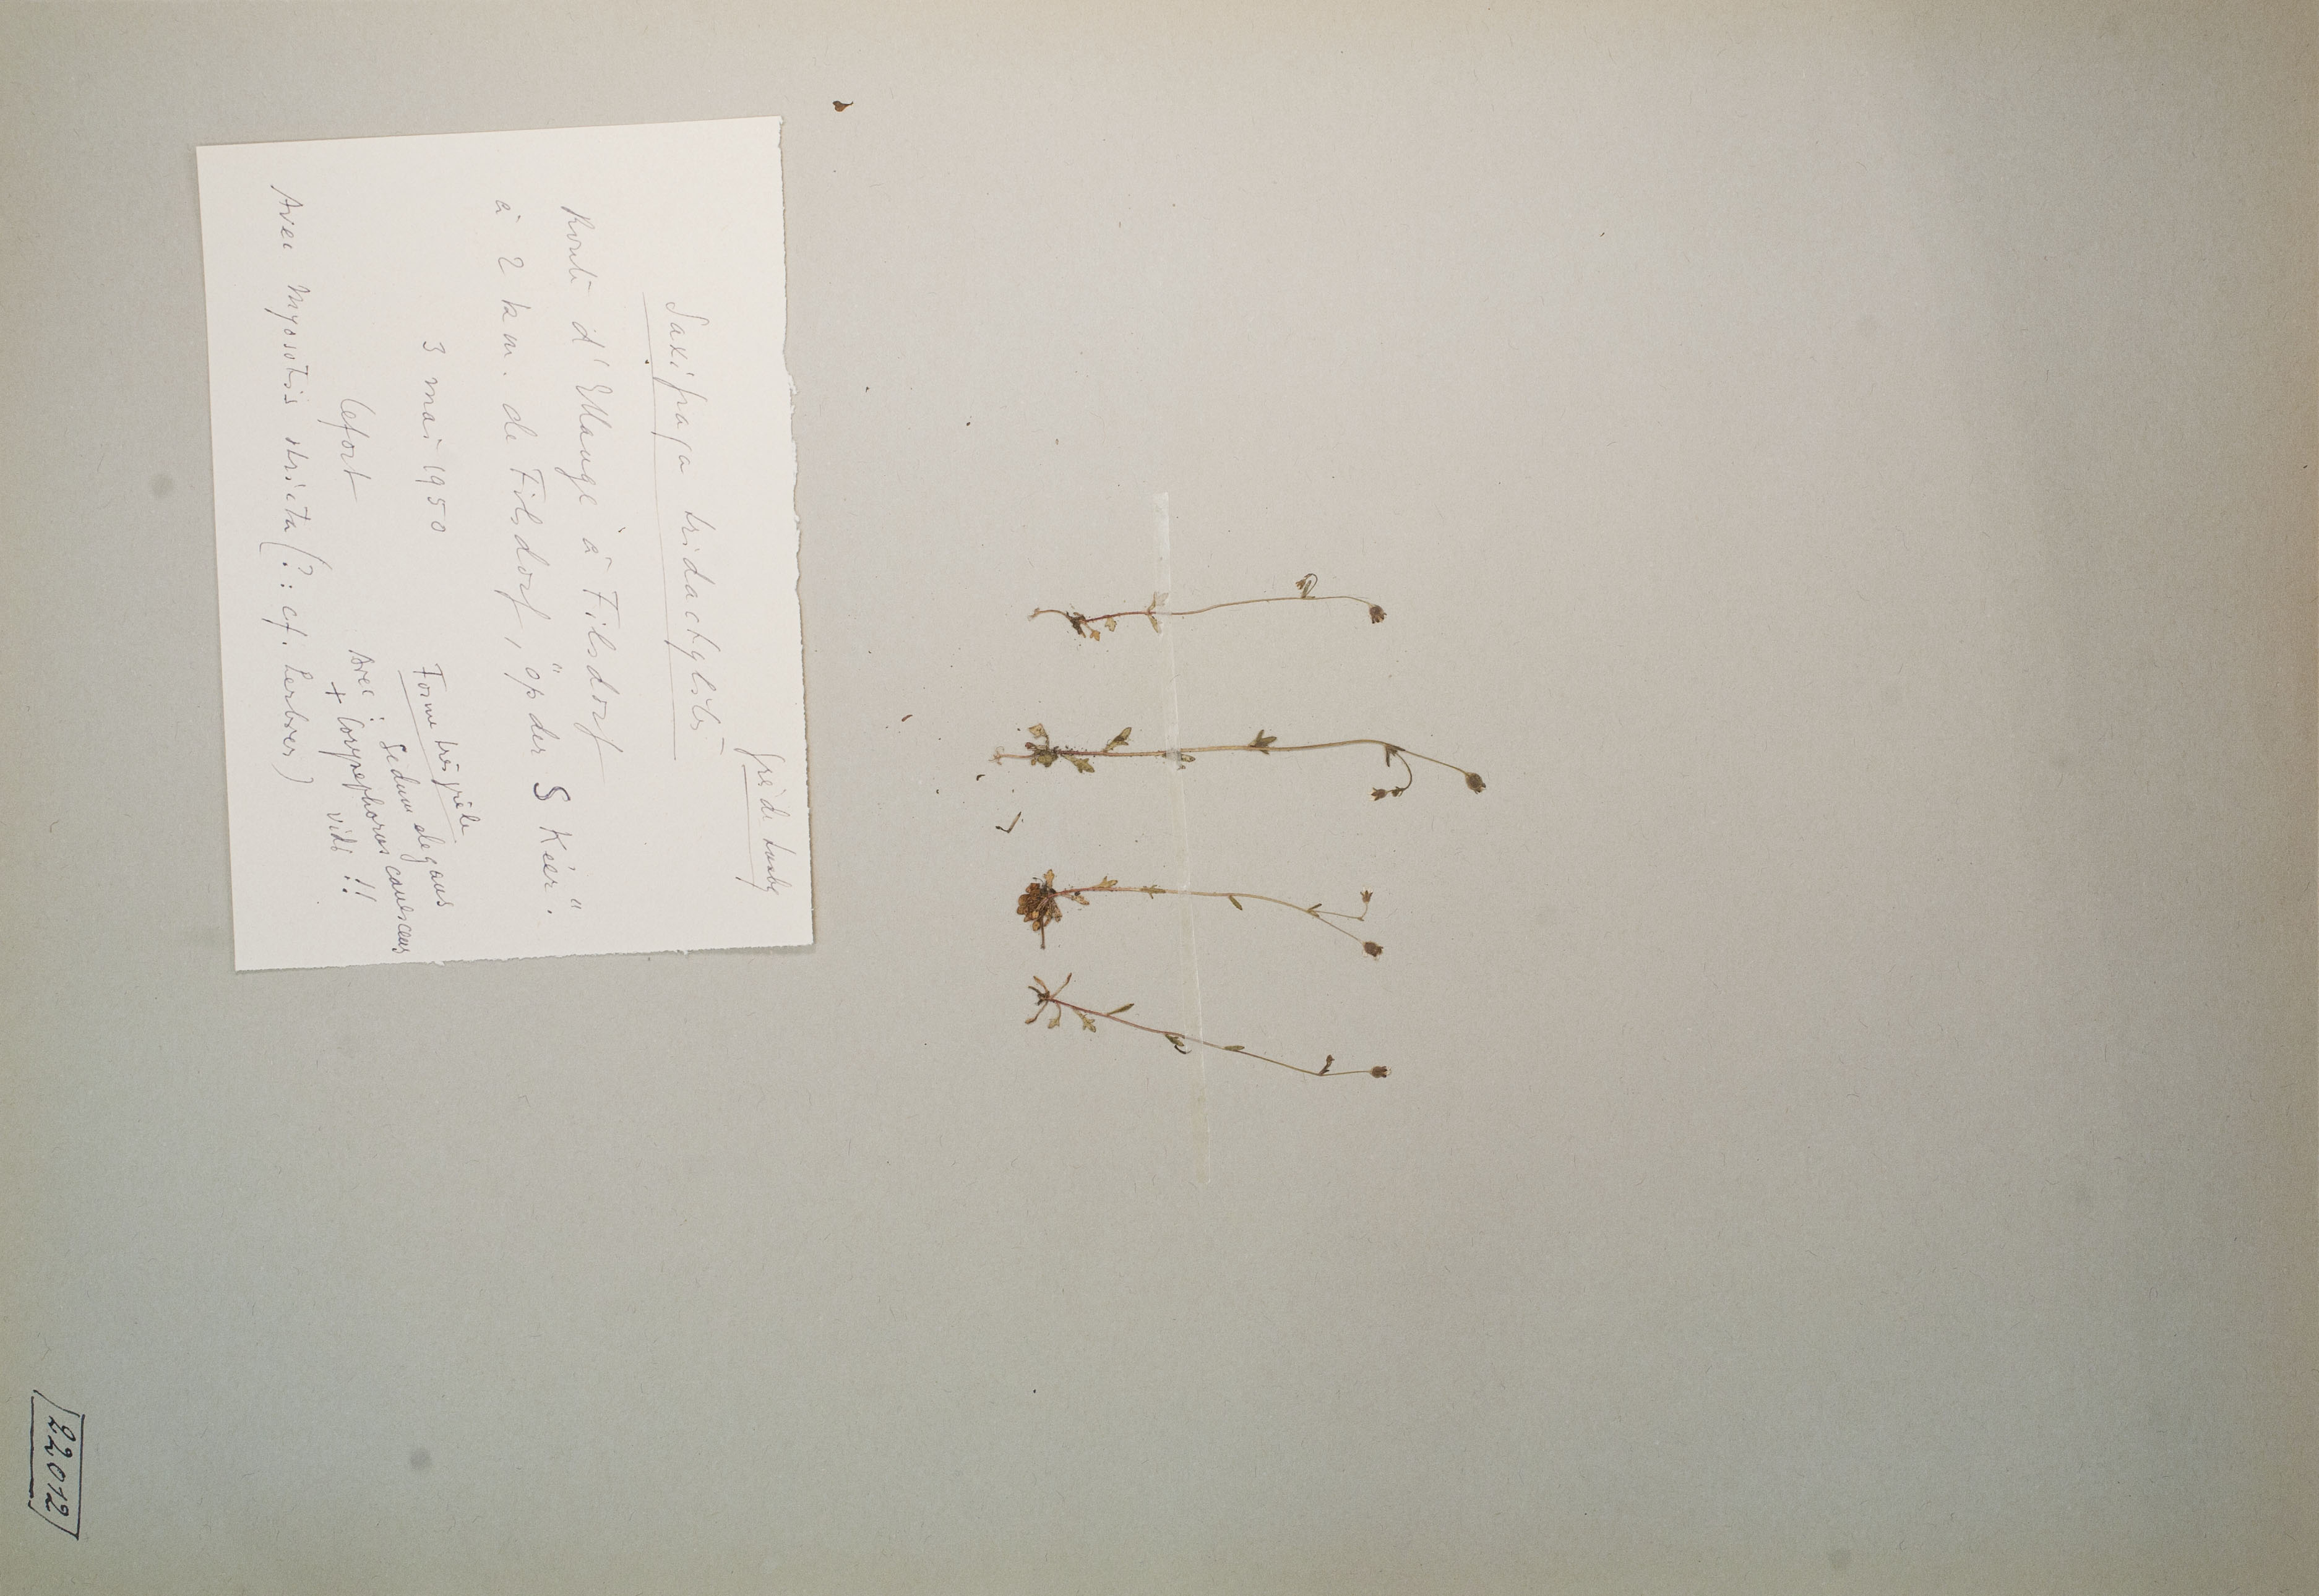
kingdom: Plantae
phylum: Tracheophyta
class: Magnoliopsida
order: Saxifragales
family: Saxifragaceae
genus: Saxifraga
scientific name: Saxifraga tridactylites
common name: Rue-leaved saxifrage
